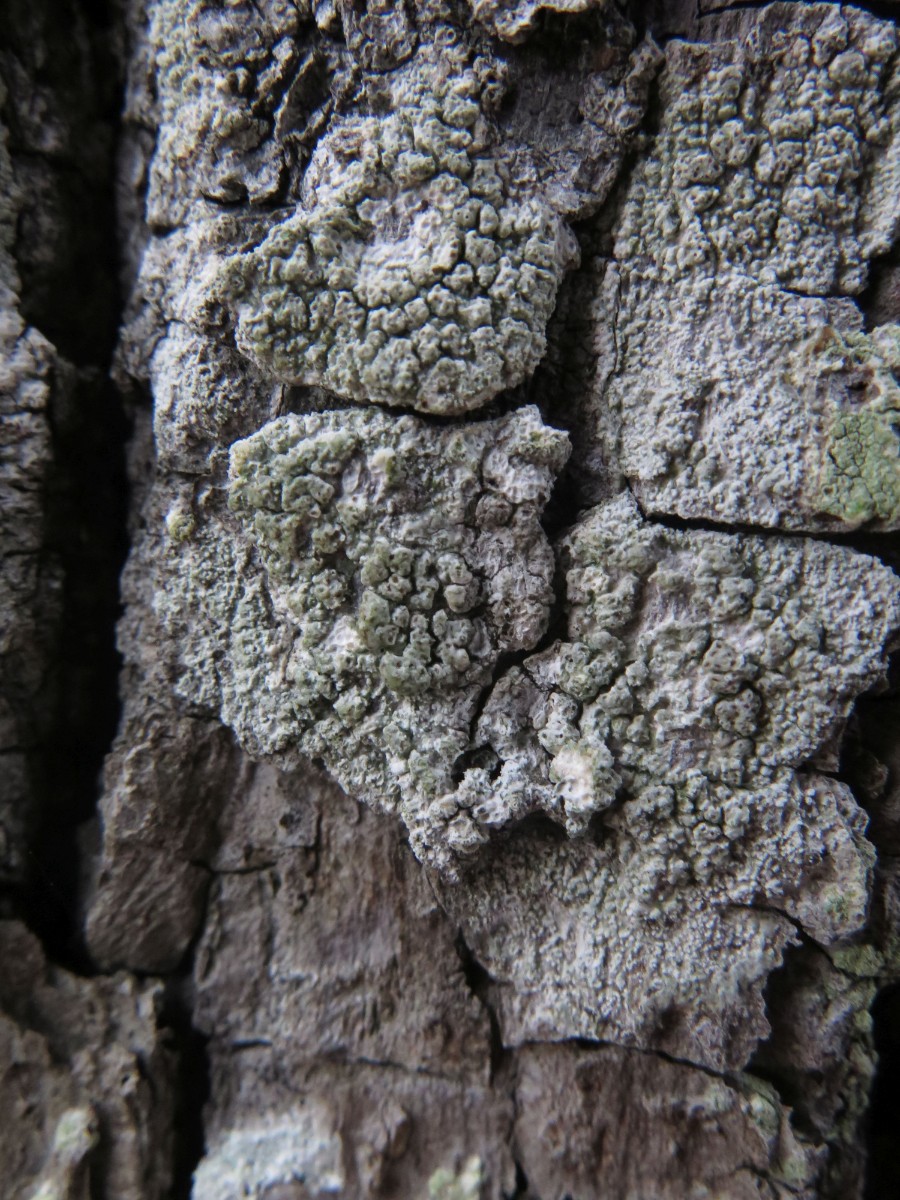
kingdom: Fungi
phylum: Ascomycota
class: Lecanoromycetes
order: Pertusariales
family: Pertusariaceae
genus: Lepra
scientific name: Lepra amara
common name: bitter prikvortelav
